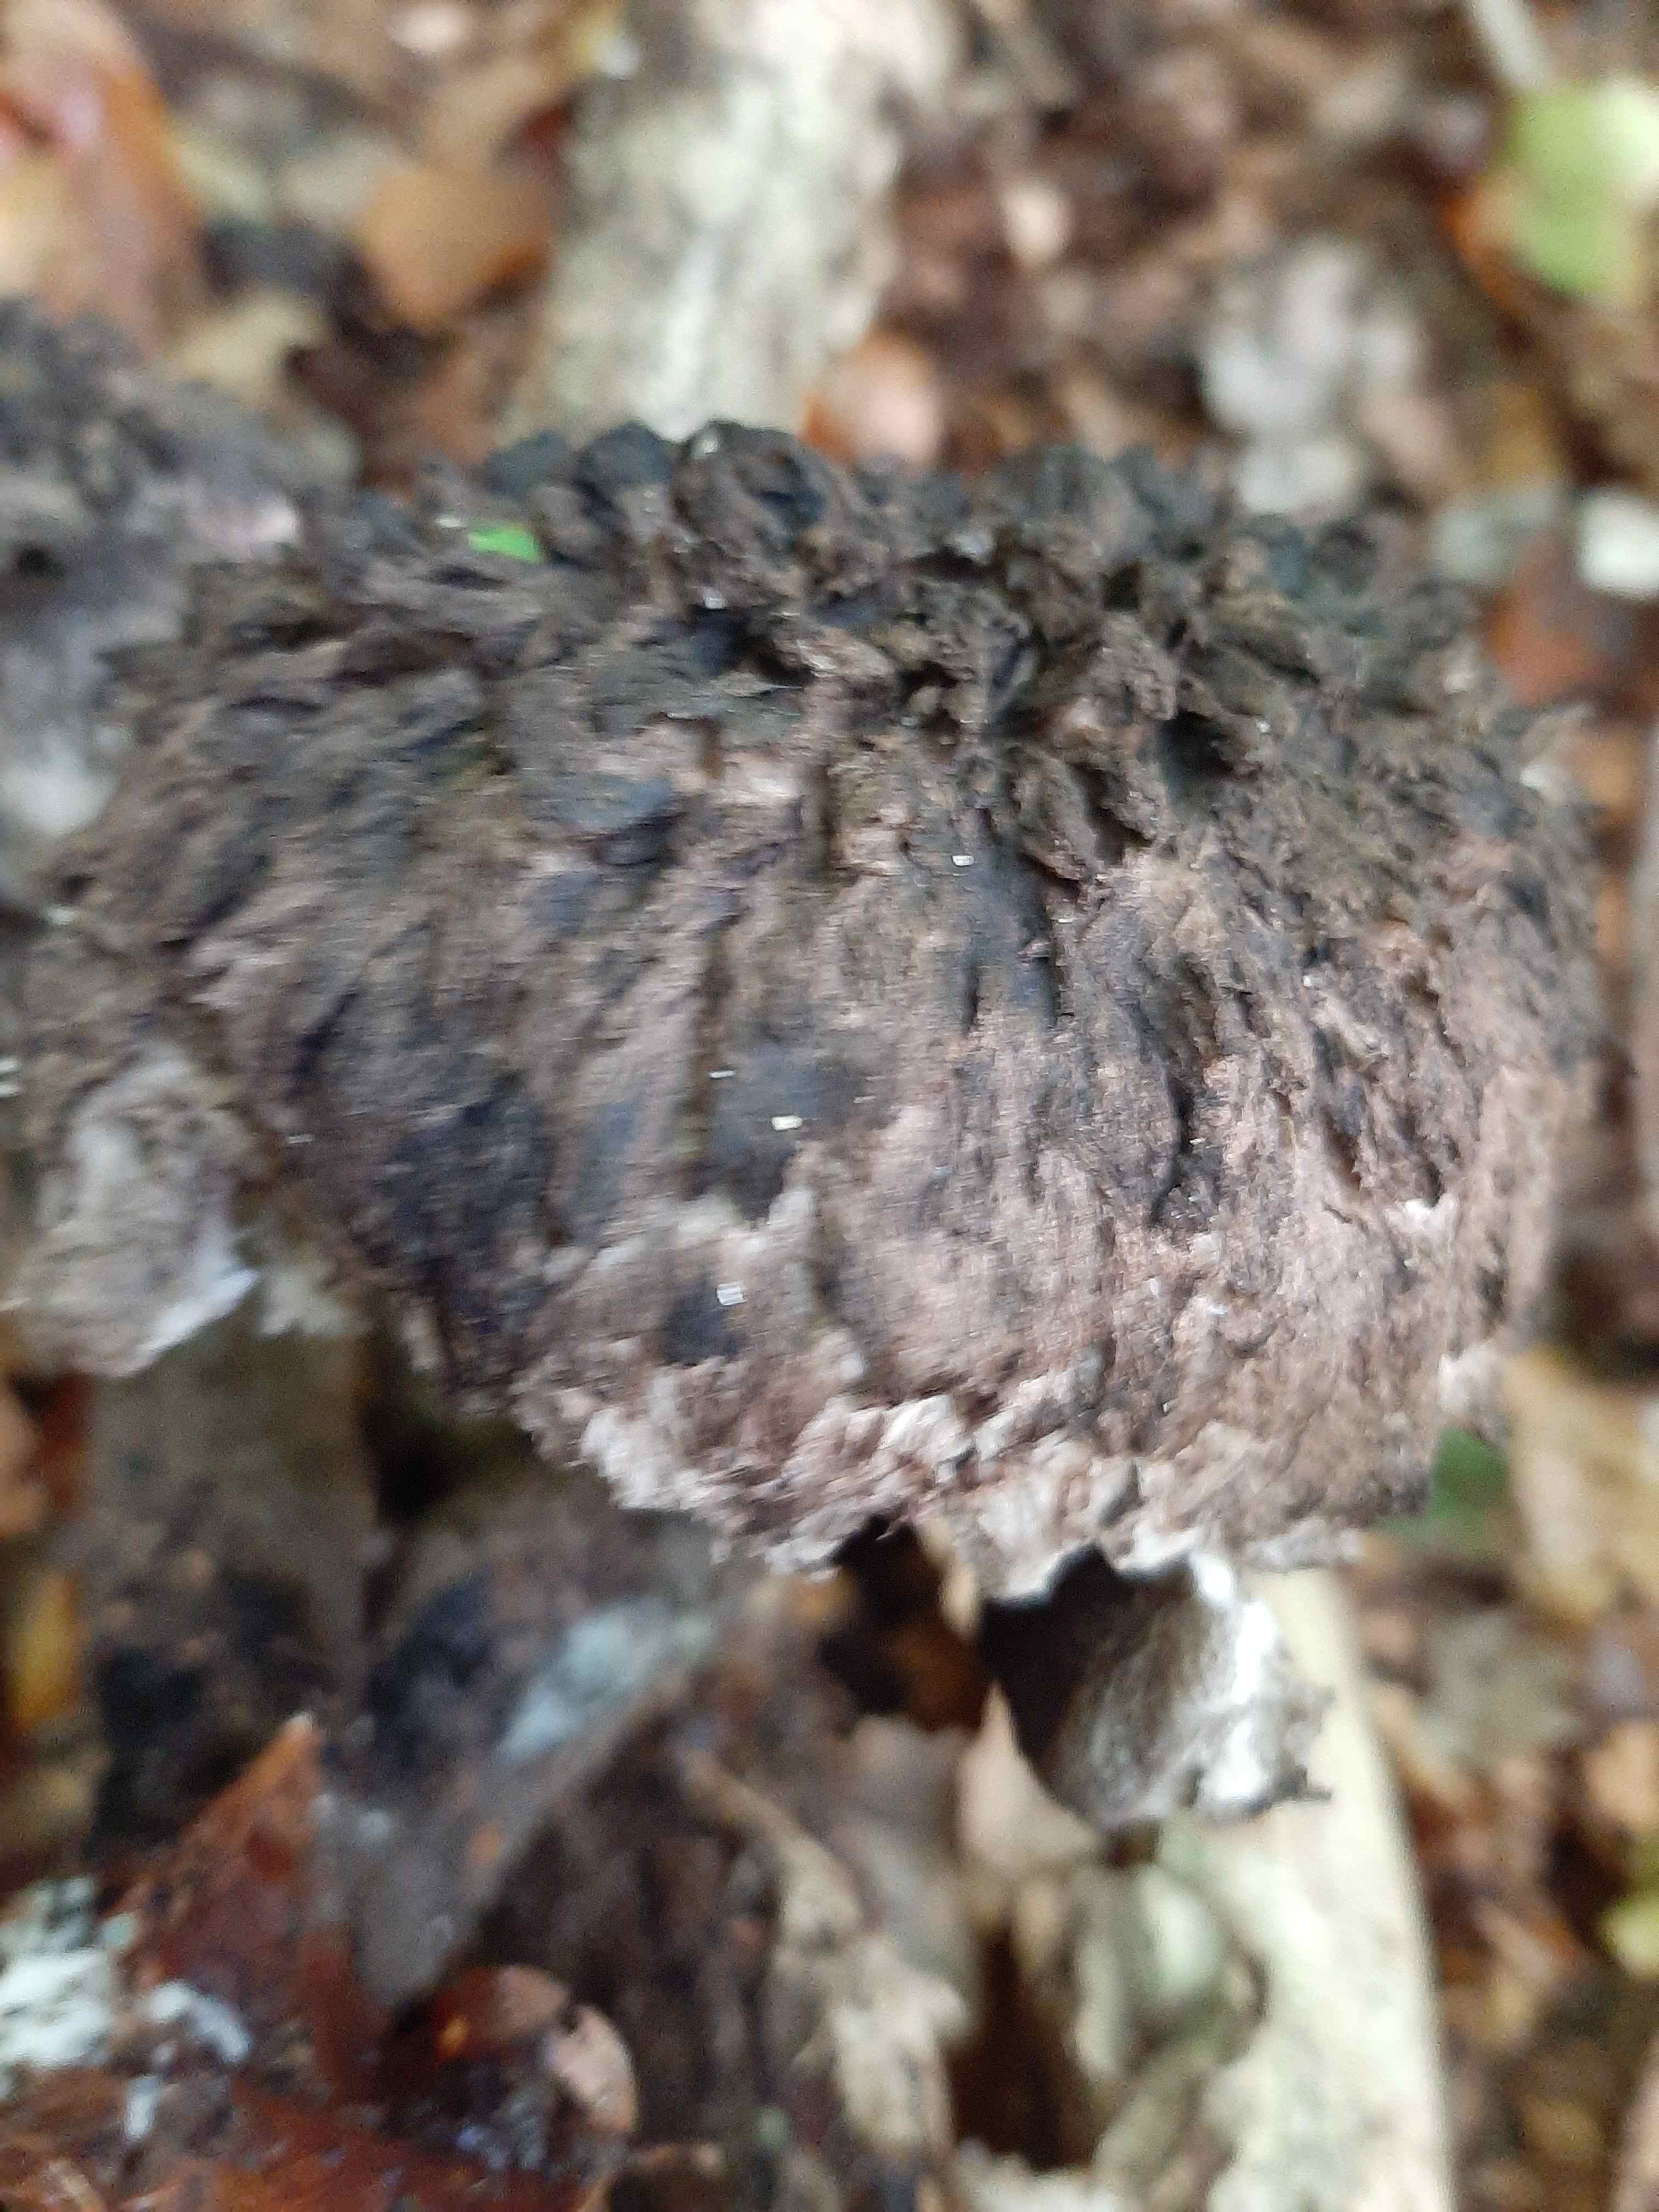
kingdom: Fungi
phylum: Basidiomycota
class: Agaricomycetes
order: Boletales
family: Boletaceae
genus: Strobilomyces
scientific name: Strobilomyces strobilaceus
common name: koglerørhat
